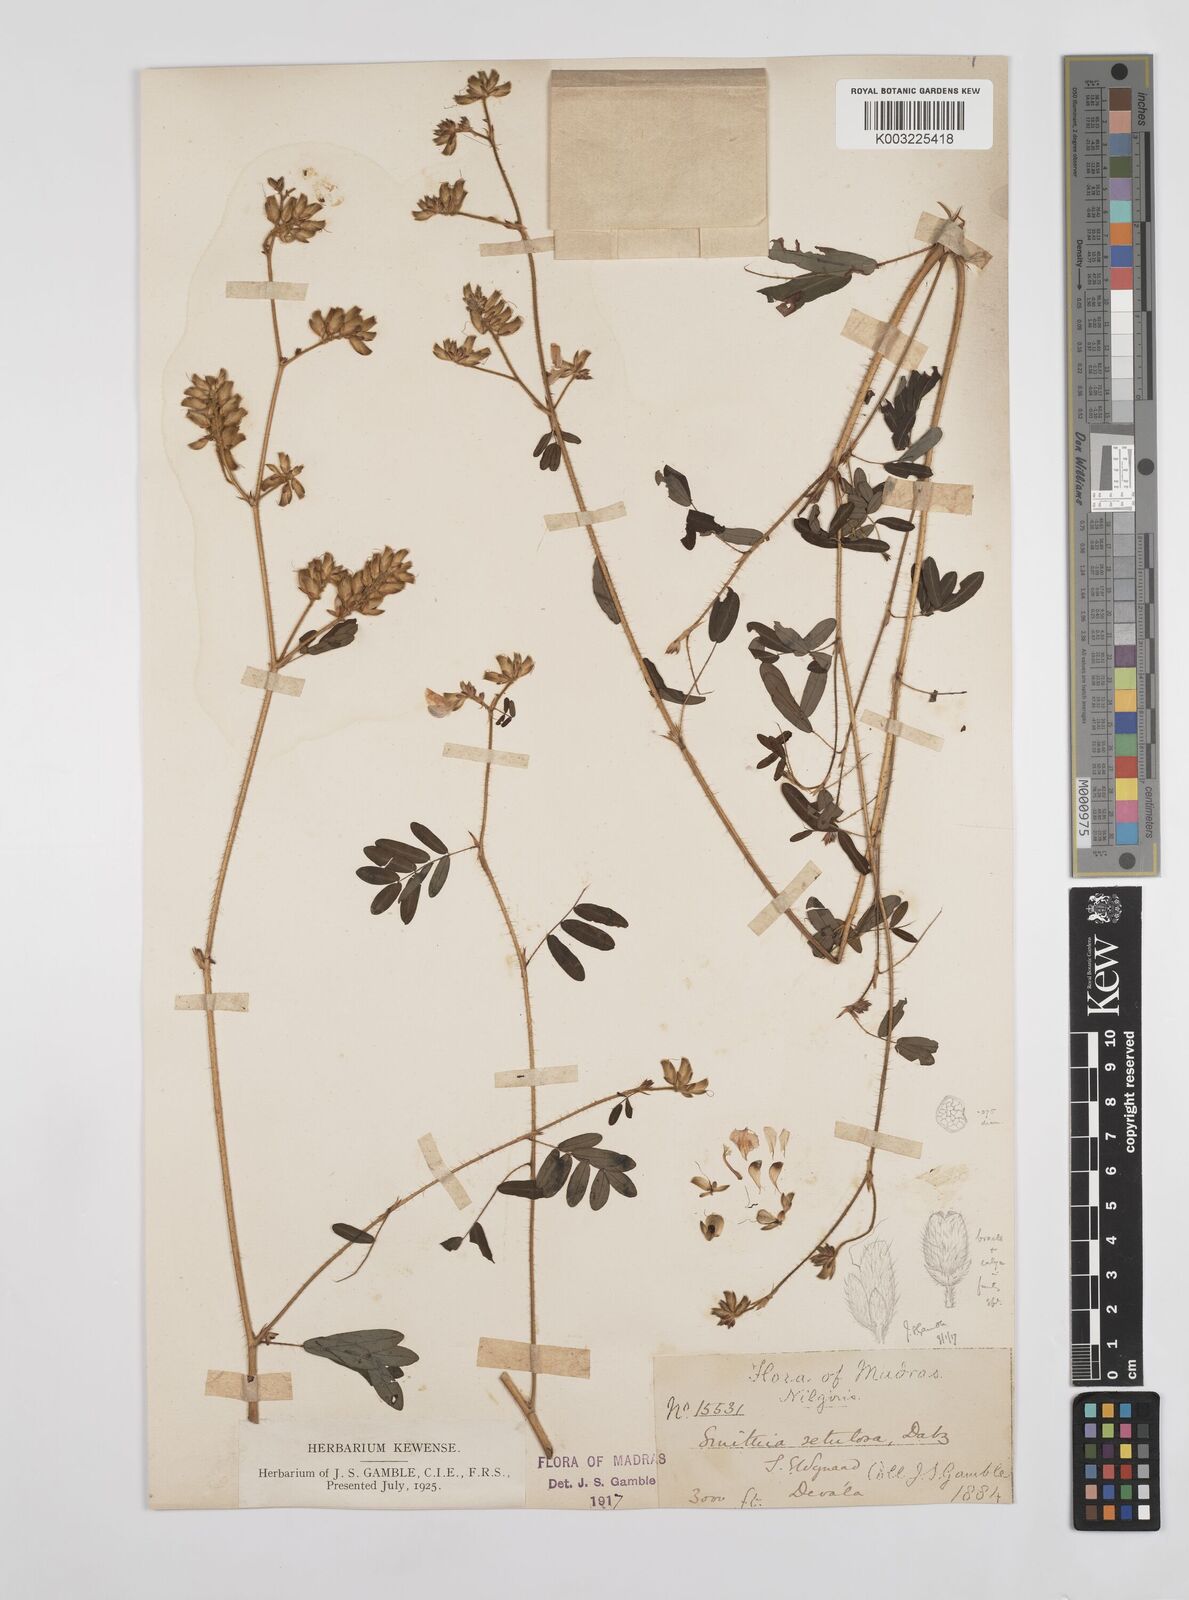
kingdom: Plantae
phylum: Tracheophyta
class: Magnoliopsida
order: Fabales
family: Fabaceae
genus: Smithia
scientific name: Smithia setulosa
